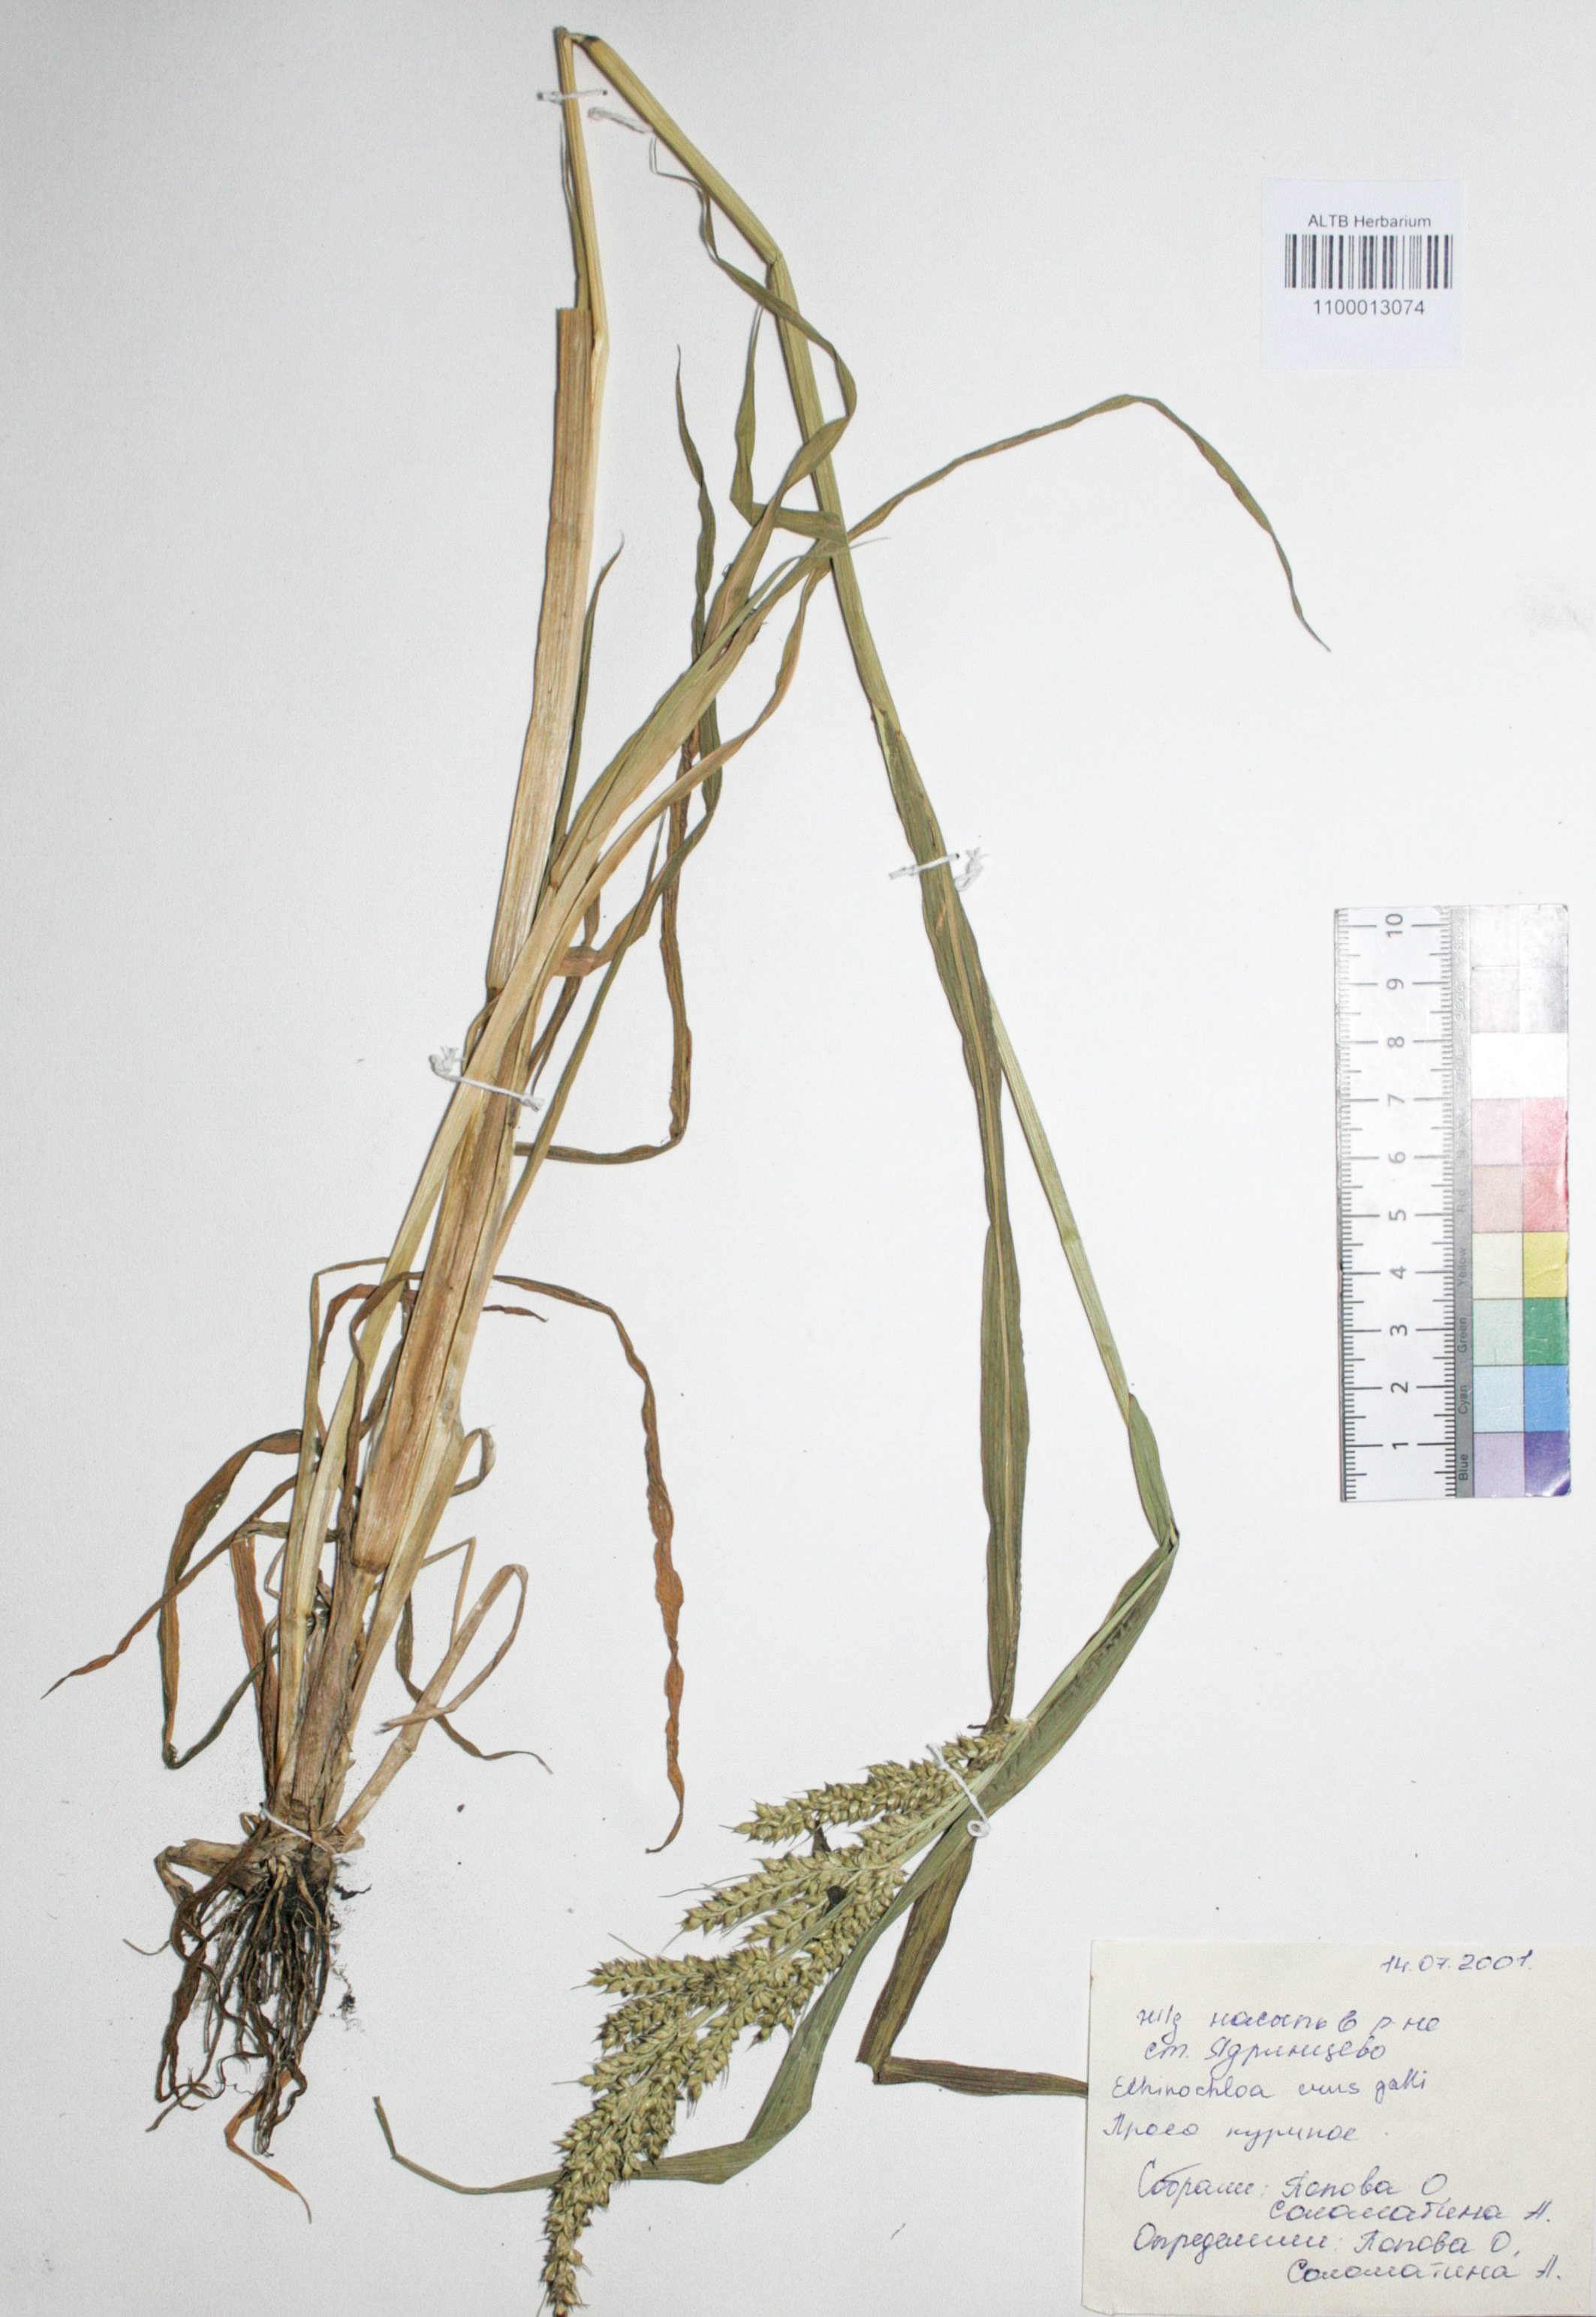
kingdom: Plantae
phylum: Tracheophyta
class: Liliopsida
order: Poales
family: Poaceae
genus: Echinochloa
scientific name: Echinochloa crus-galli
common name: Cockspur
